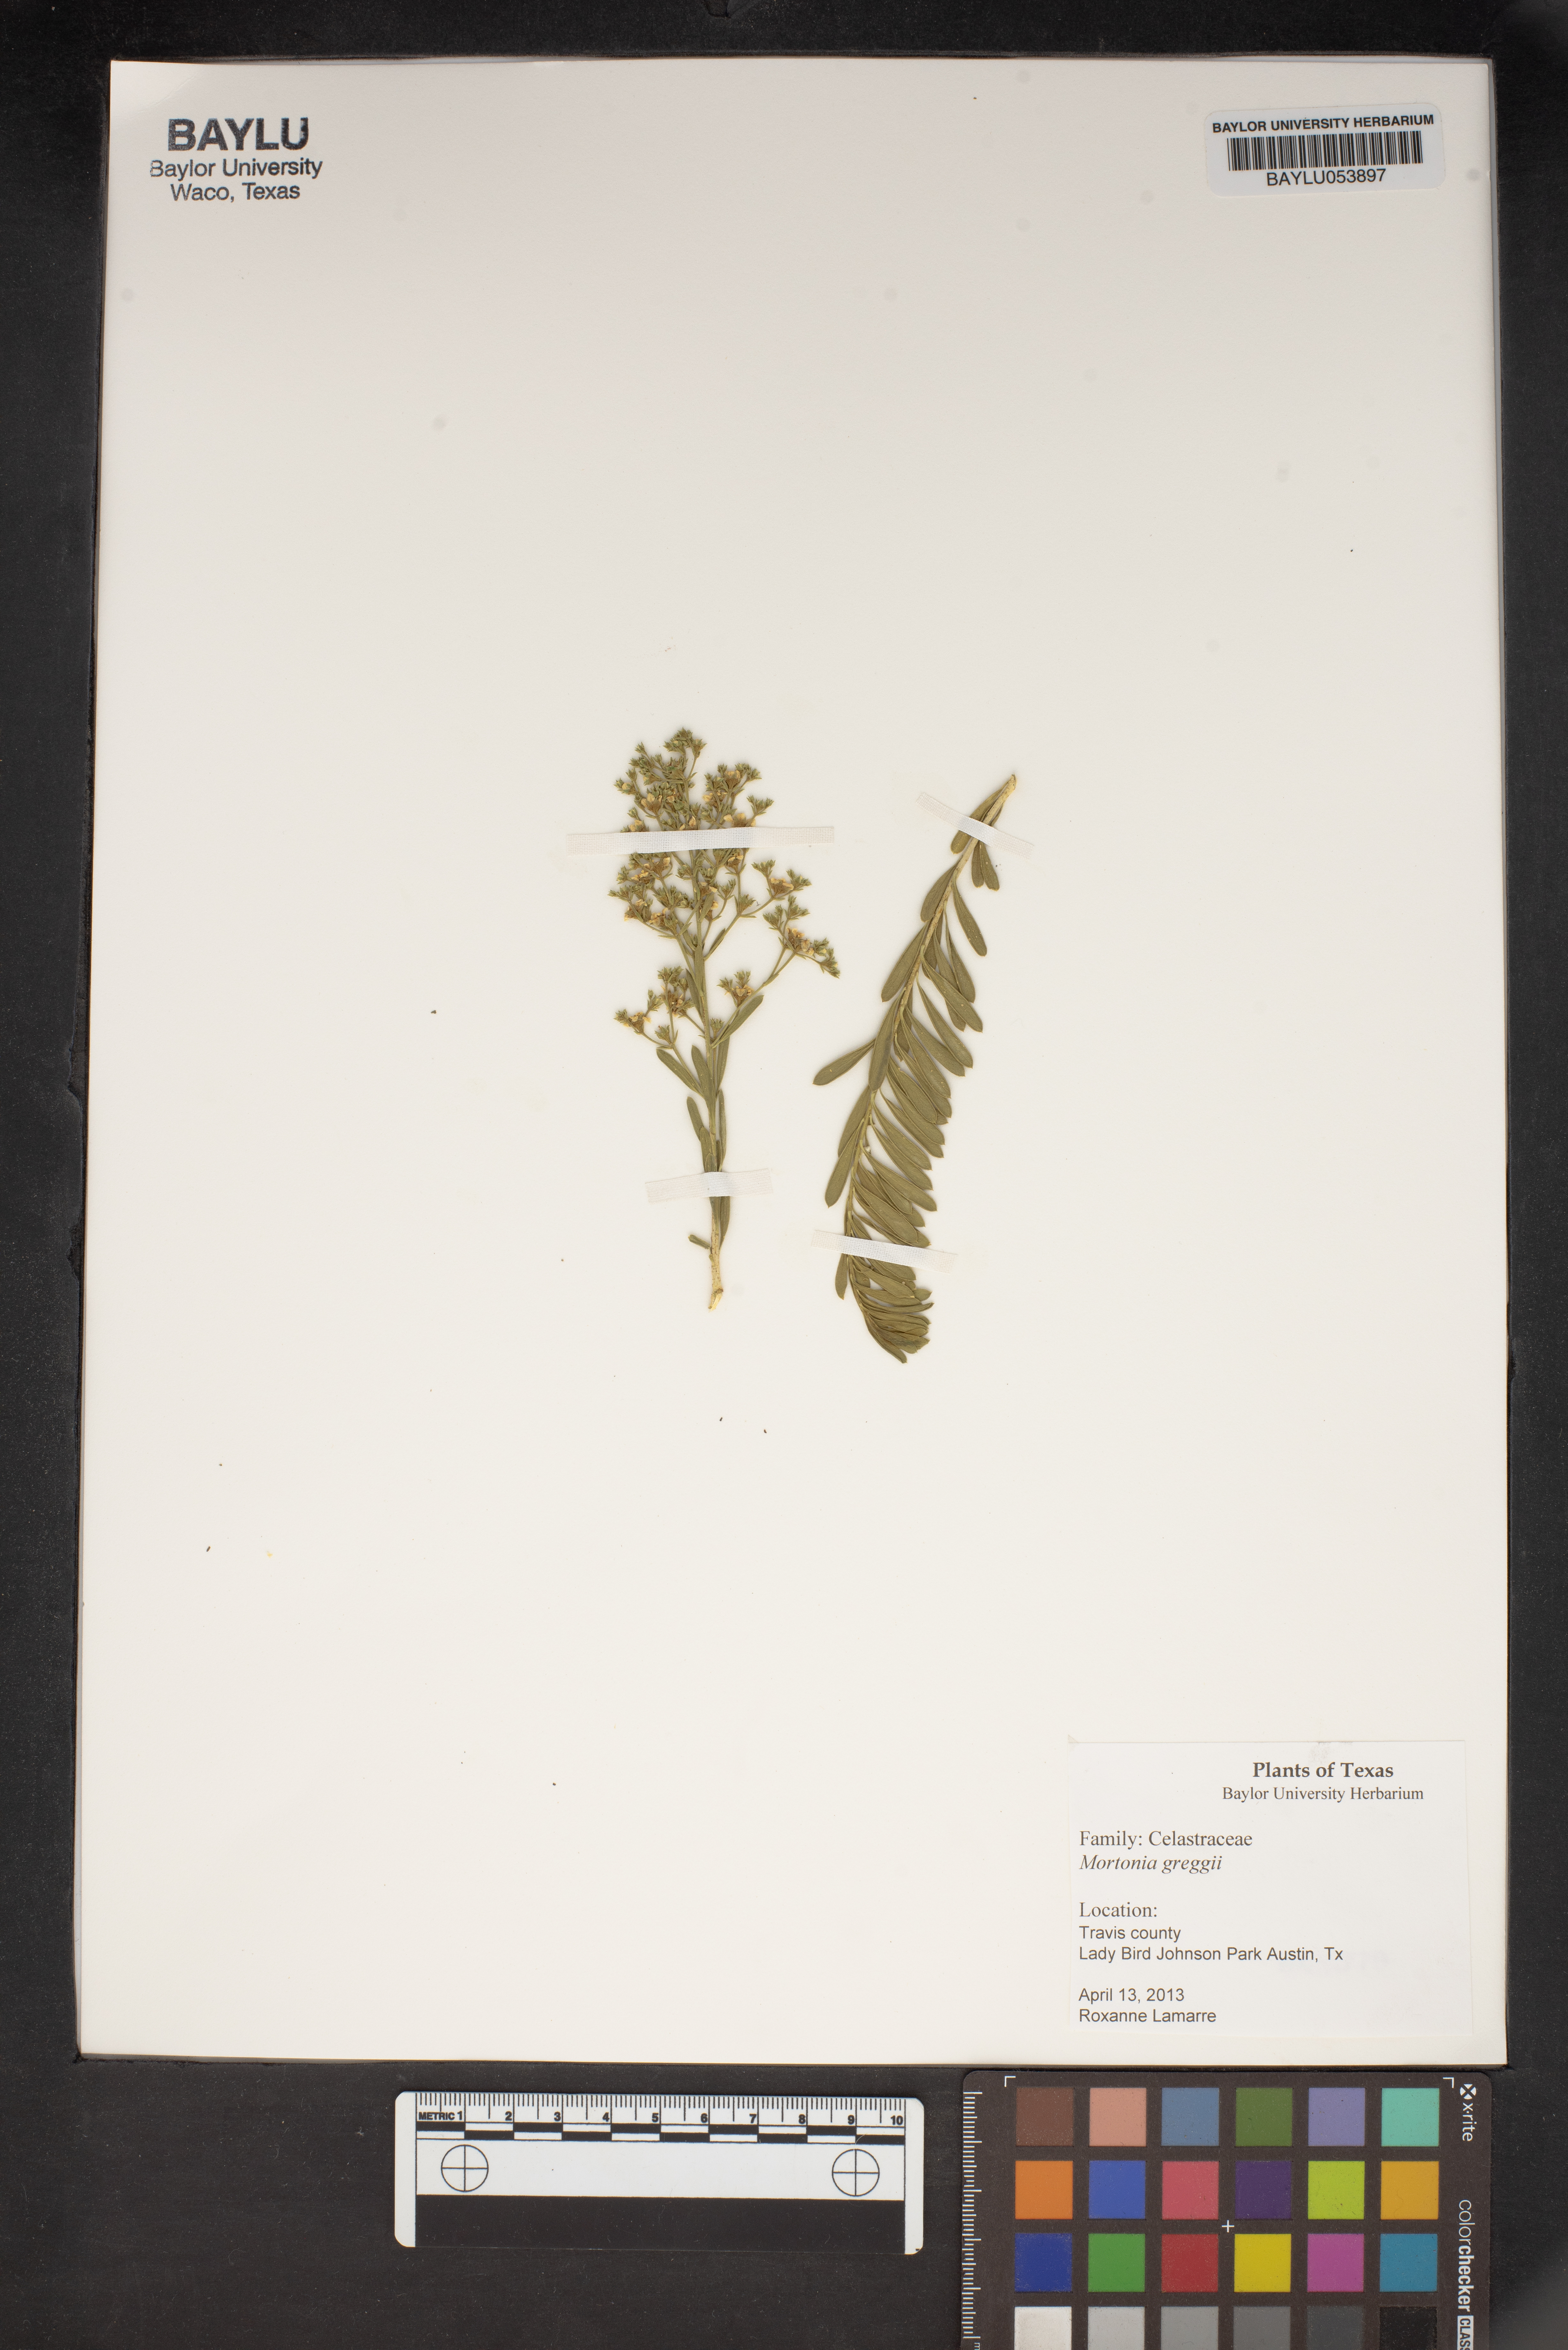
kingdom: Plantae
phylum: Tracheophyta
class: Magnoliopsida
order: Celastrales
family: Celastraceae
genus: Mortonia
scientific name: Mortonia greggii
